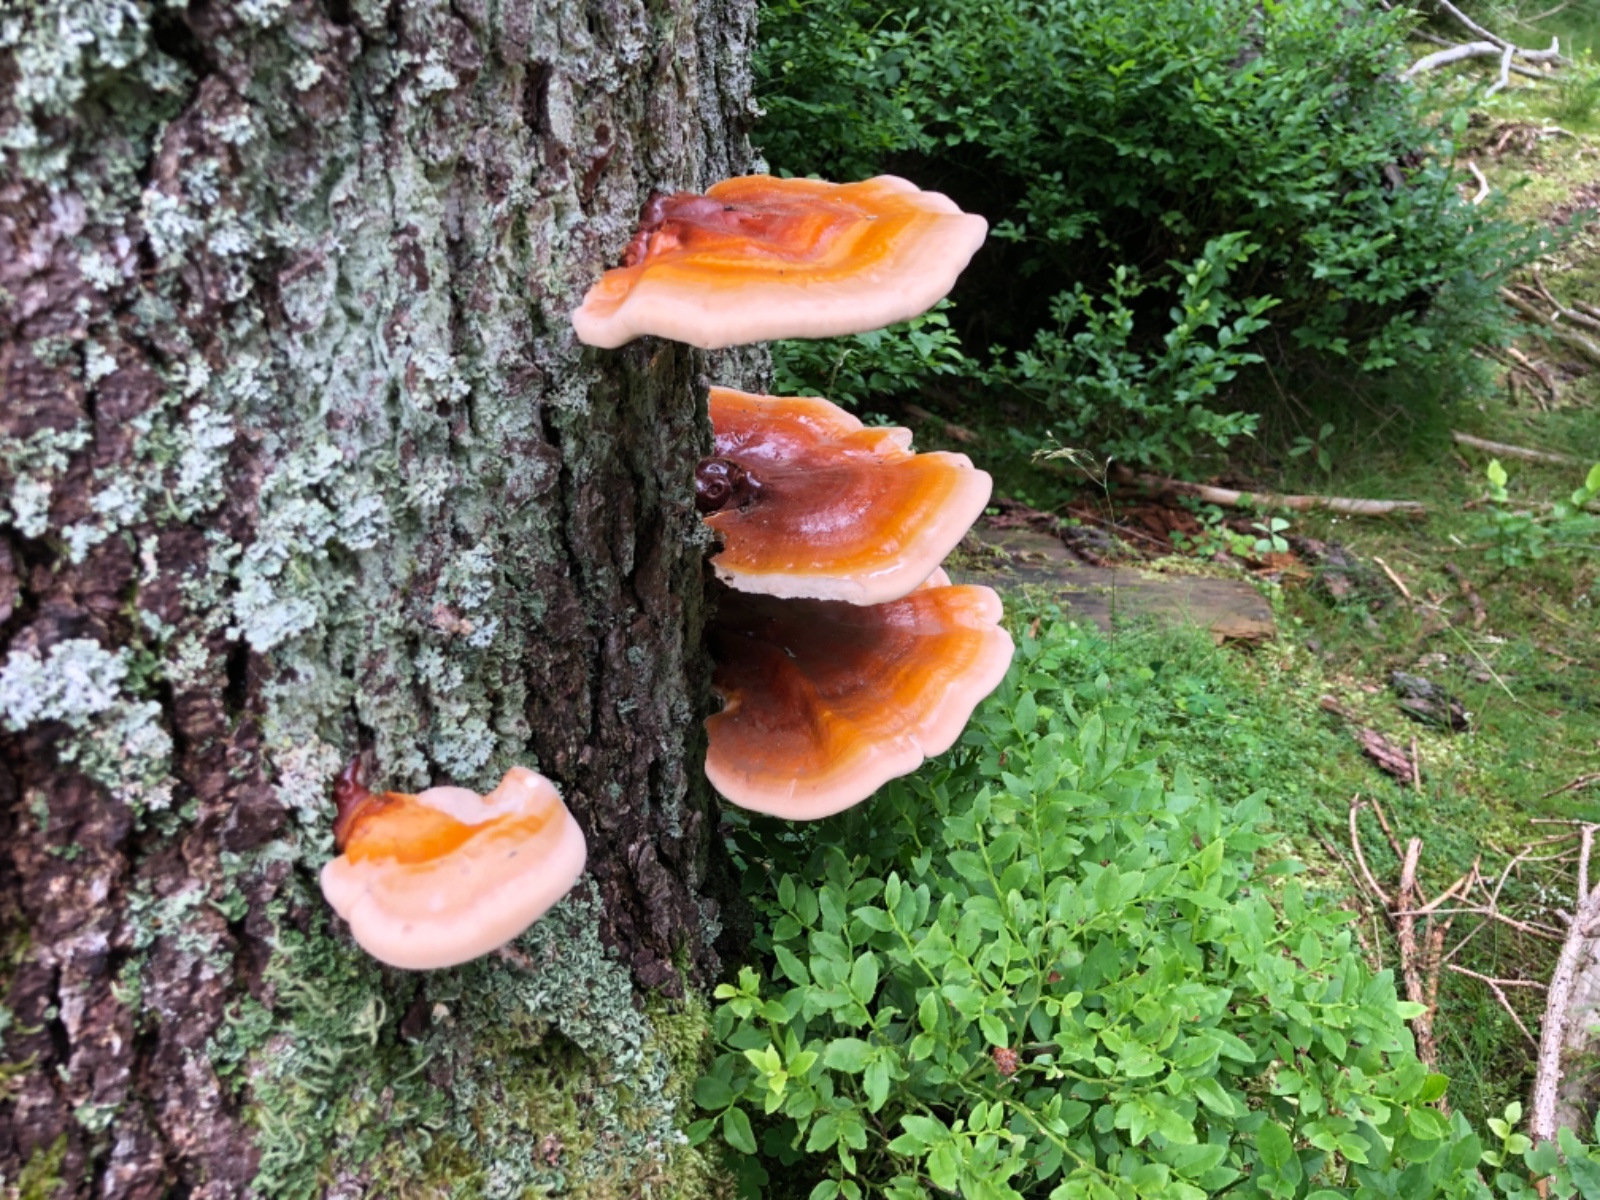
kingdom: Fungi
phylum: Basidiomycota
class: Agaricomycetes
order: Polyporales
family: Polyporaceae
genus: Ganoderma
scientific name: Ganoderma lucidum
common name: skinnende lakporesvamp
